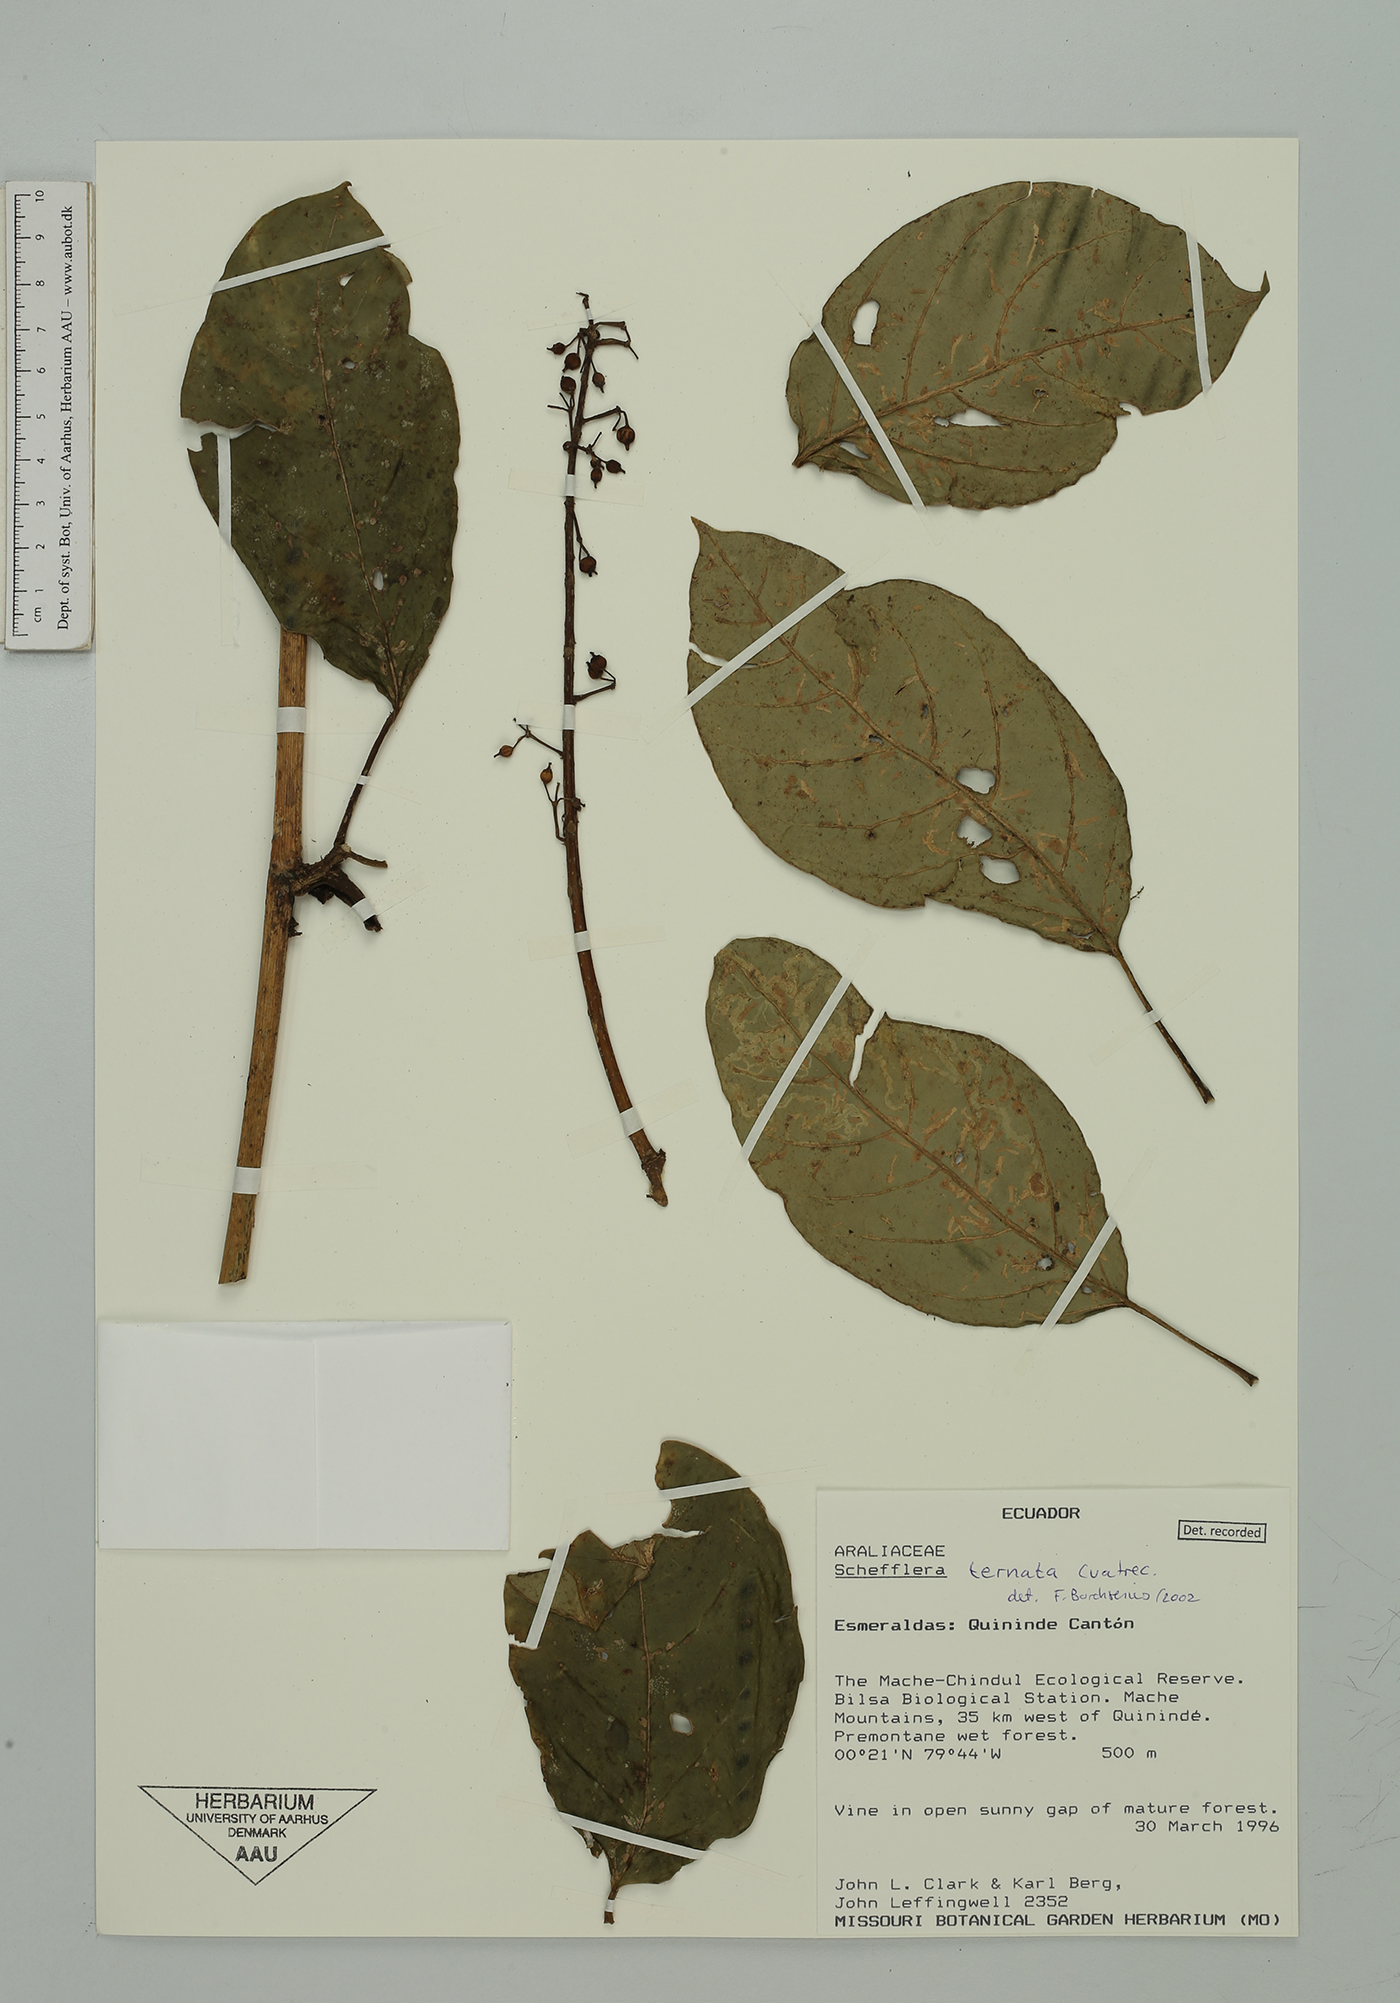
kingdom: Plantae
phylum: Tracheophyta
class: Magnoliopsida
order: Apiales
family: Araliaceae
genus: Sciodaphyllum
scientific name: Sciodaphyllum ternatum
